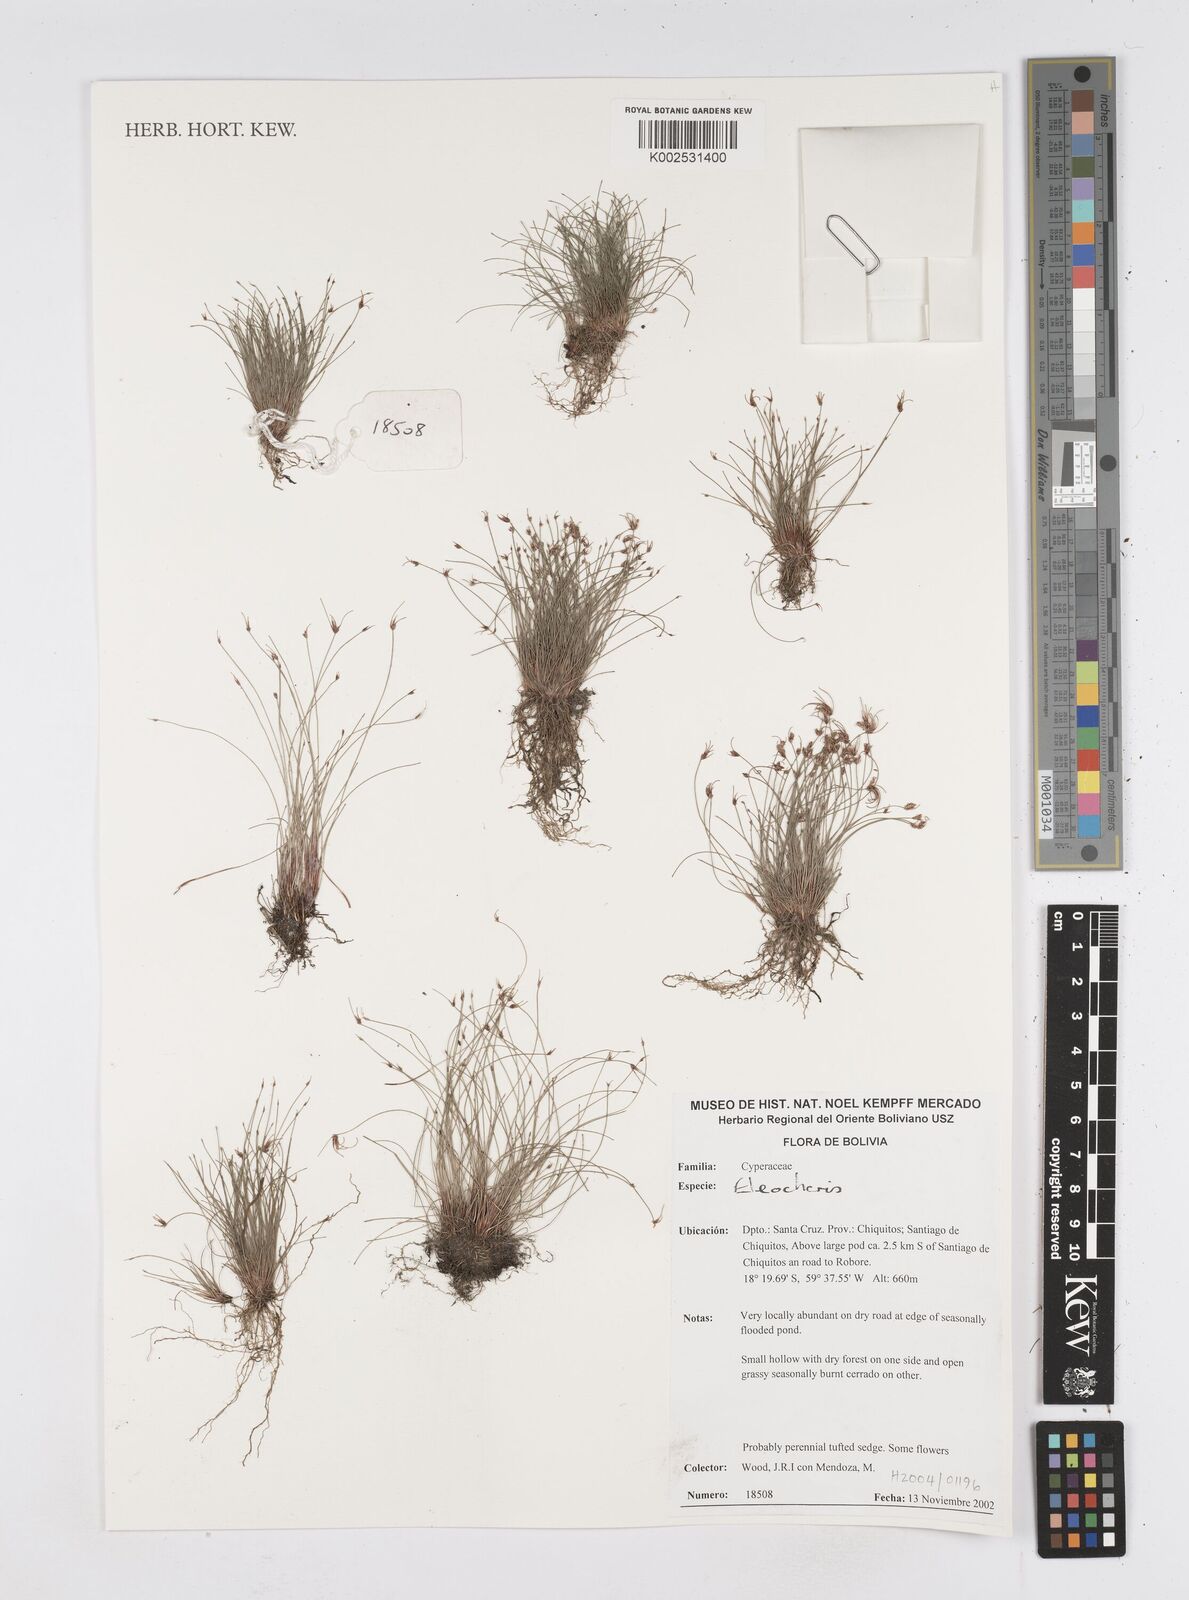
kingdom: Plantae
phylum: Tracheophyta
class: Liliopsida
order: Poales
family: Cyperaceae
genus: Eleocharis
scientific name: Eleocharis
